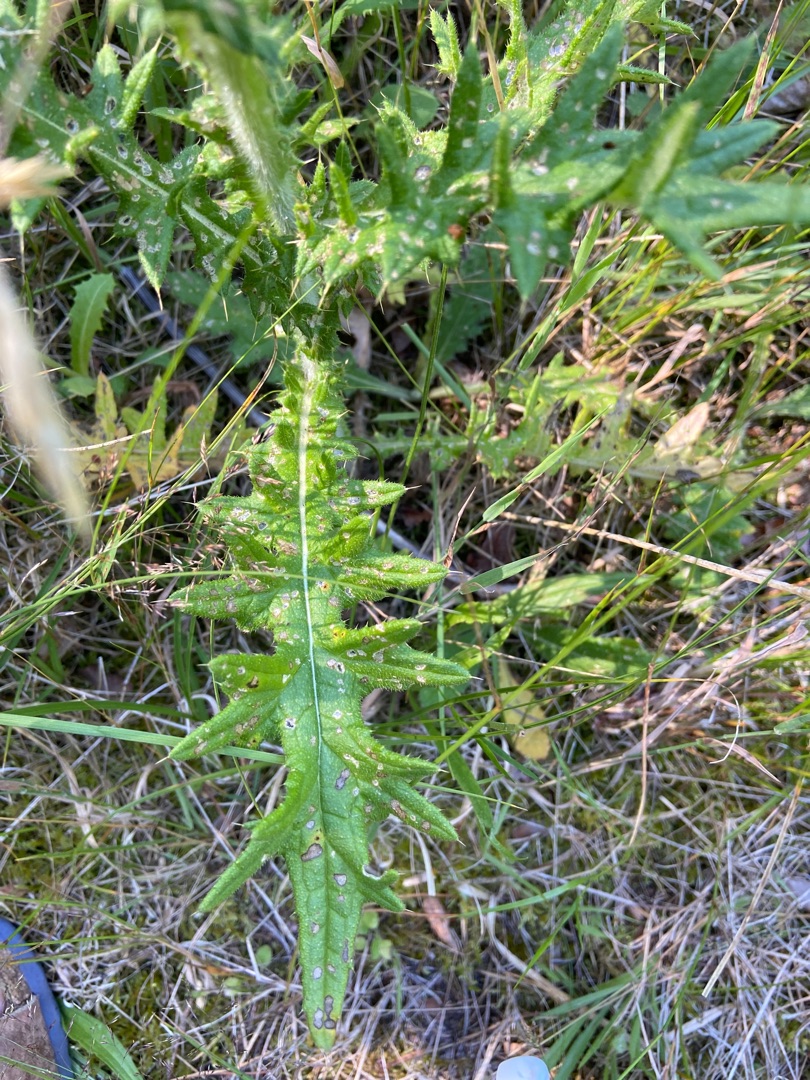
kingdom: Plantae
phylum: Tracheophyta
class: Magnoliopsida
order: Asterales
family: Asteraceae
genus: Cirsium
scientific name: Cirsium vulgare
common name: Horse-tidsel
